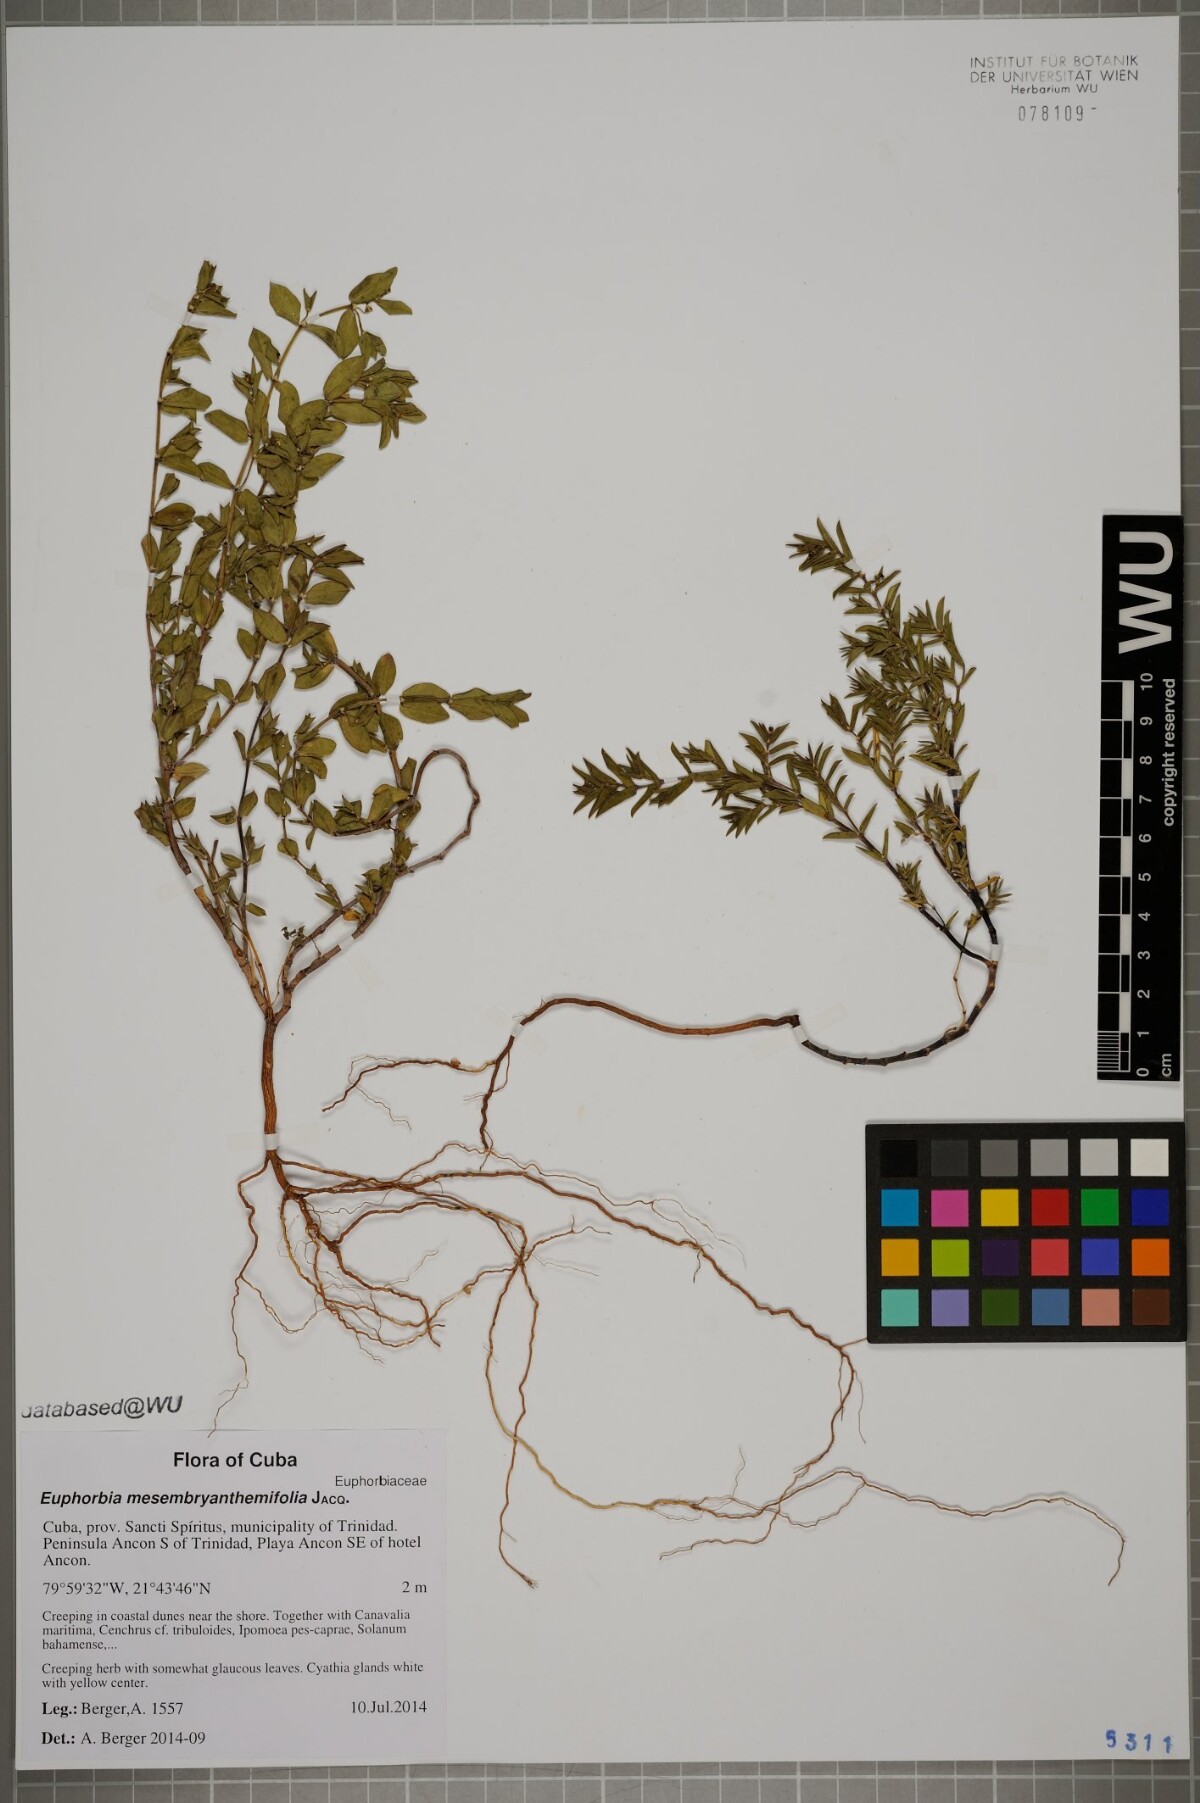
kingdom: Plantae
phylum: Tracheophyta
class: Magnoliopsida
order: Malpighiales
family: Euphorbiaceae
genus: Euphorbia
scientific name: Euphorbia mesembryanthemifolia
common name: Coastal beach sandmat
